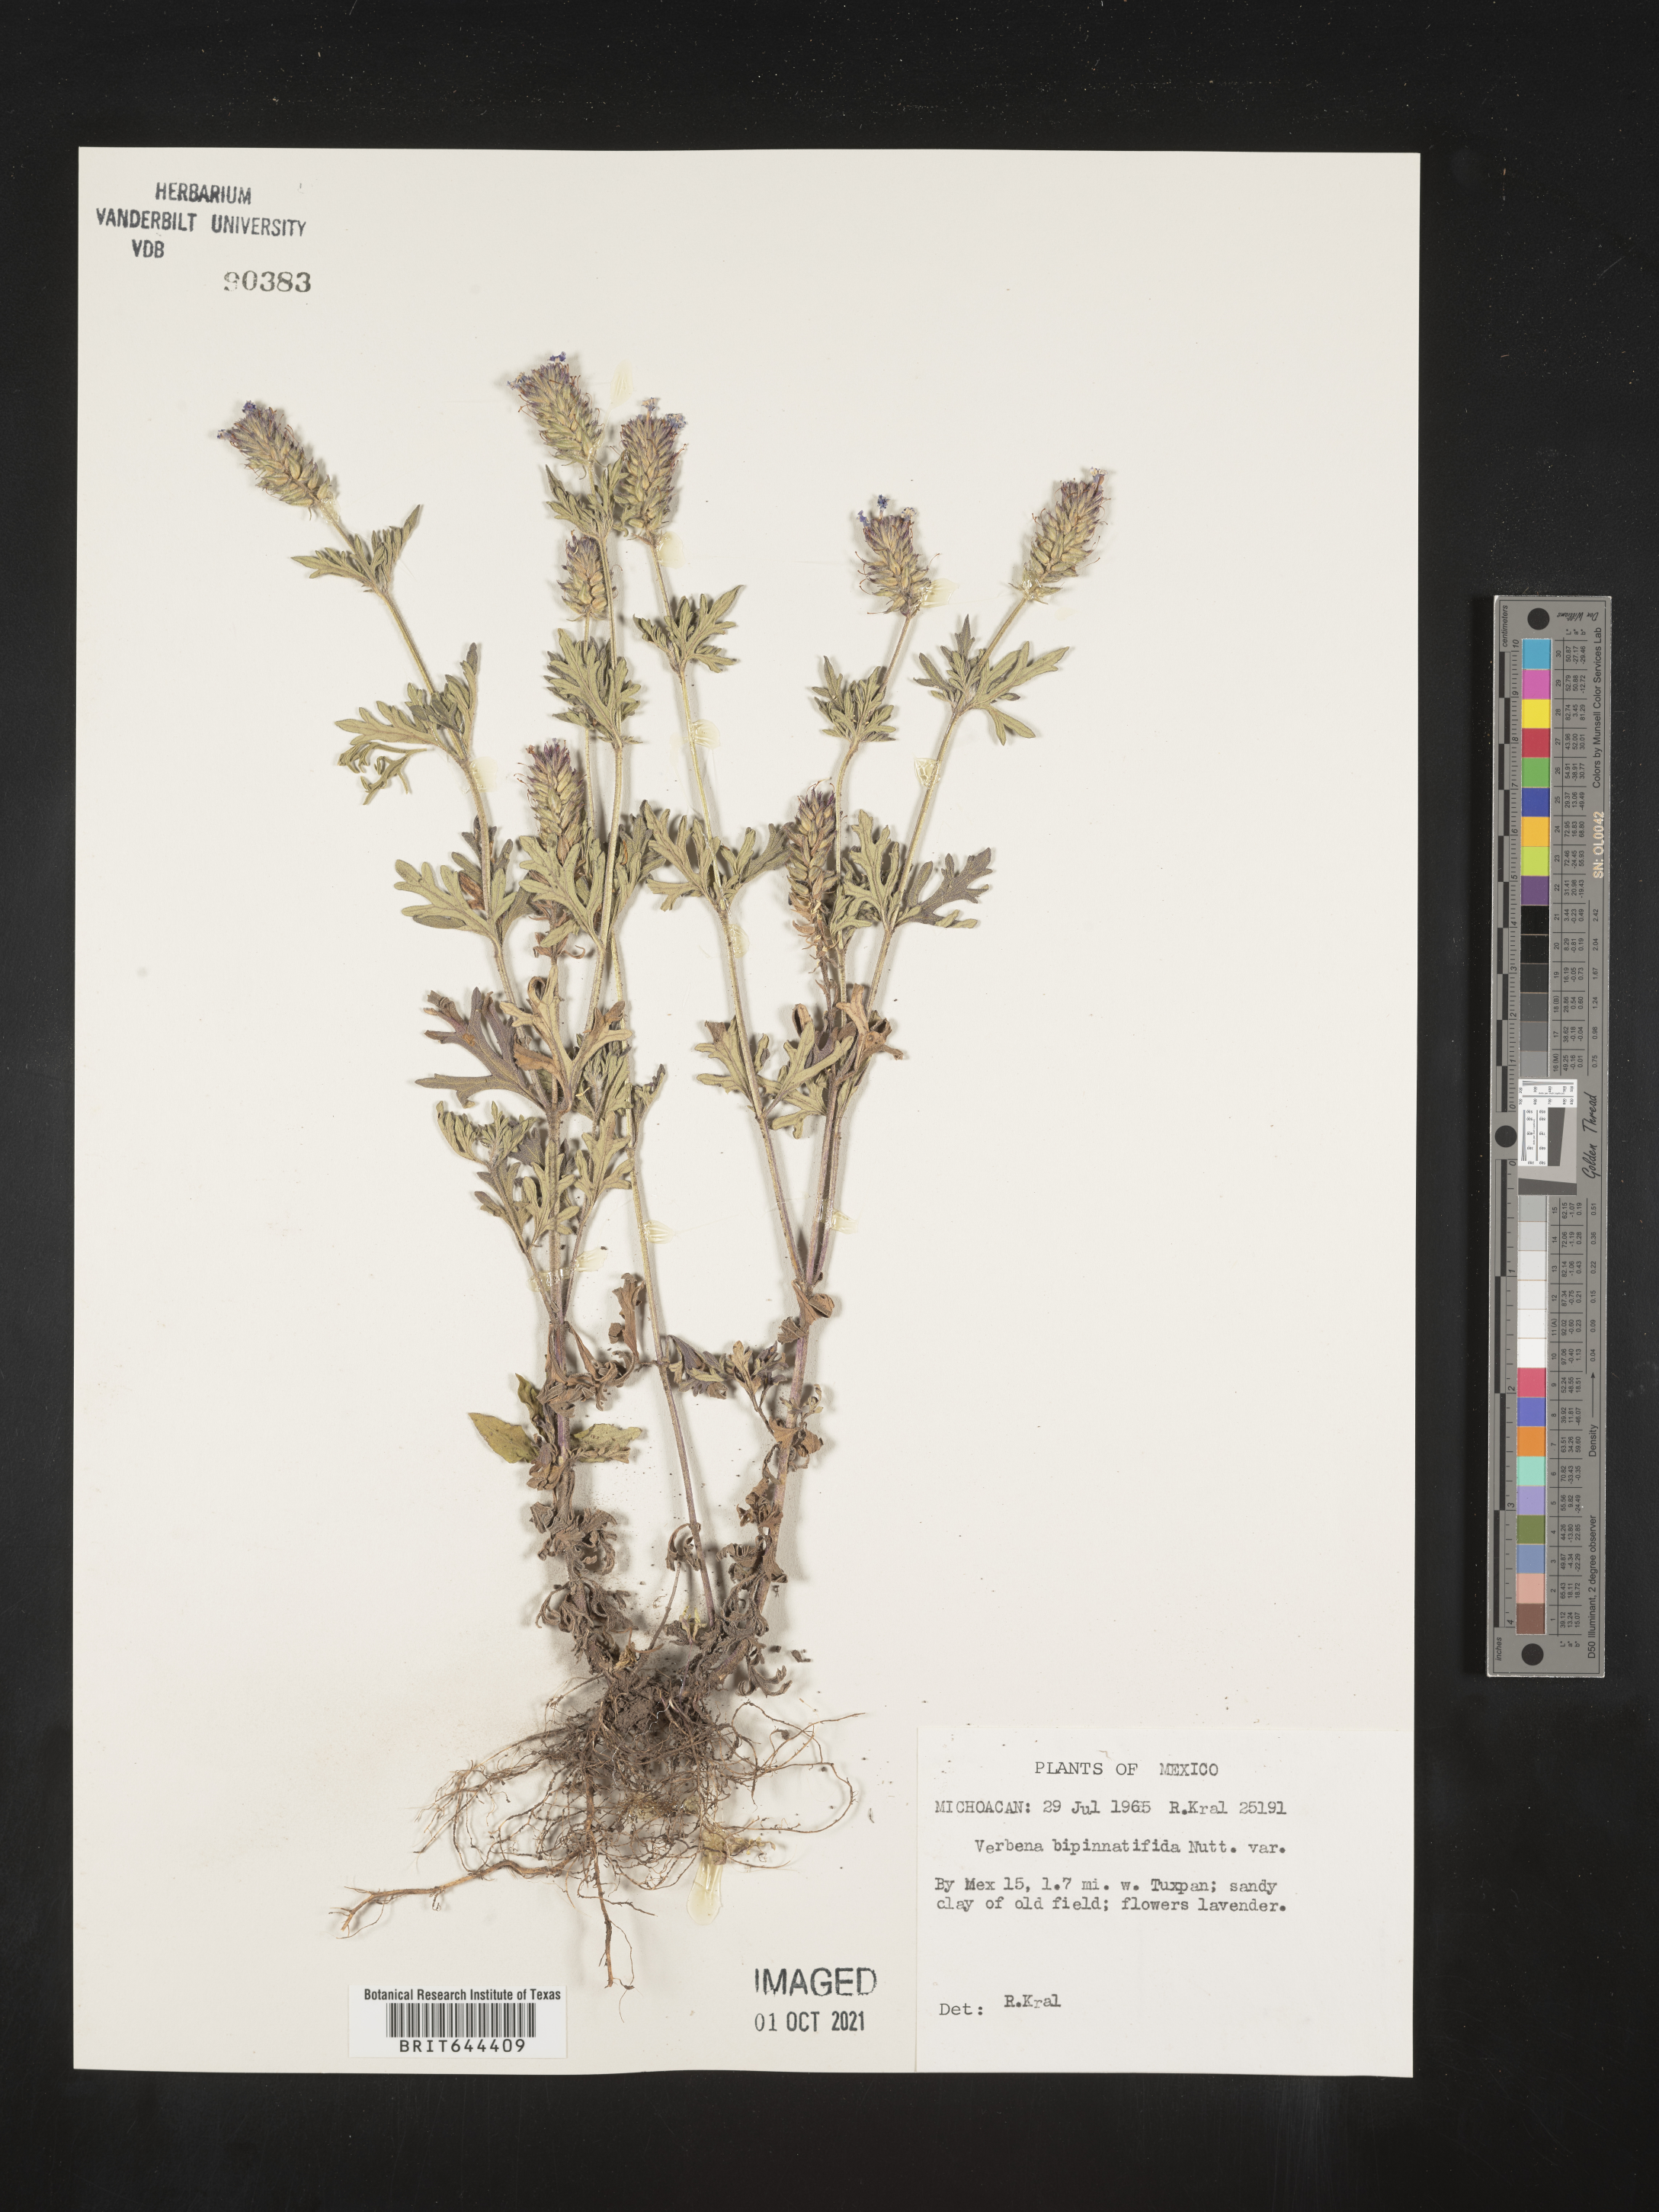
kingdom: Plantae
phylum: Tracheophyta
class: Magnoliopsida
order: Lamiales
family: Verbenaceae
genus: Verbena
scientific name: Verbena
